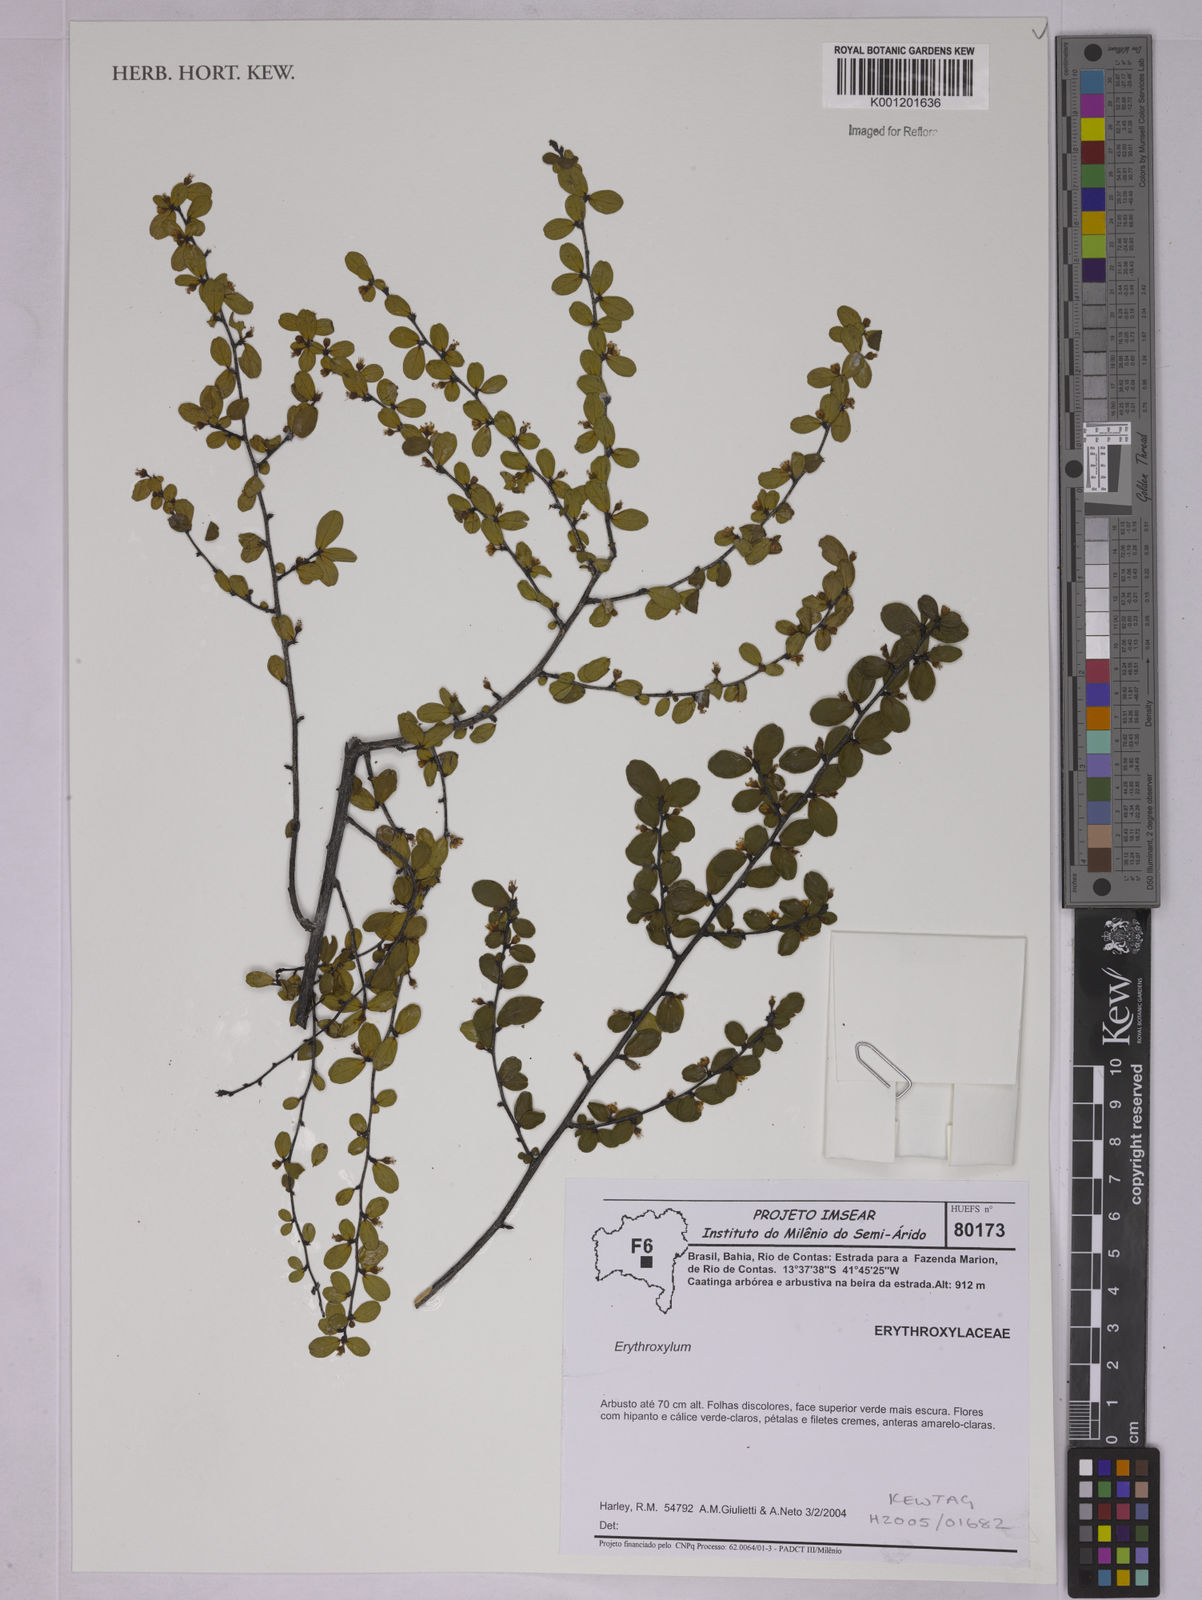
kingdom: Plantae
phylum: Tracheophyta
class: Magnoliopsida
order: Malpighiales
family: Erythroxylaceae
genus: Erythroxylum
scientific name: Erythroxylum
